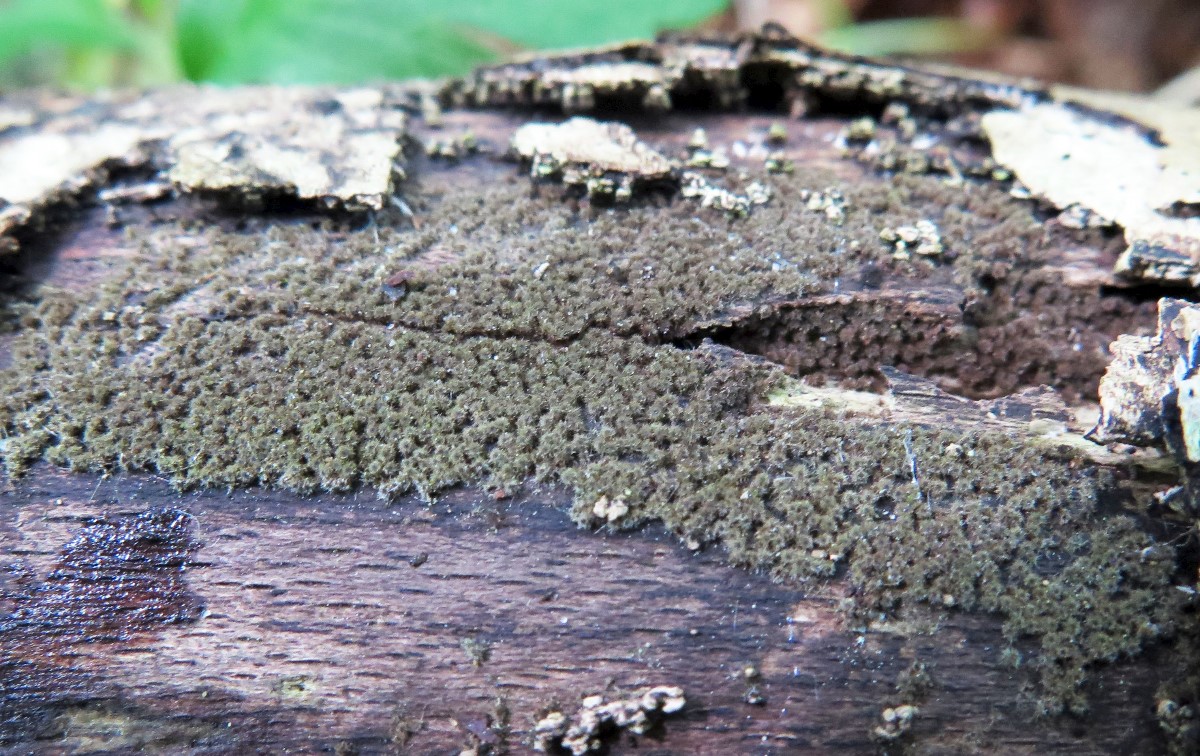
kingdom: Fungi
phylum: Ascomycota
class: Sordariomycetes
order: Sordariales
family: Helminthosphaeriaceae
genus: Echinosphaeria
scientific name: Echinosphaeria strigosa
